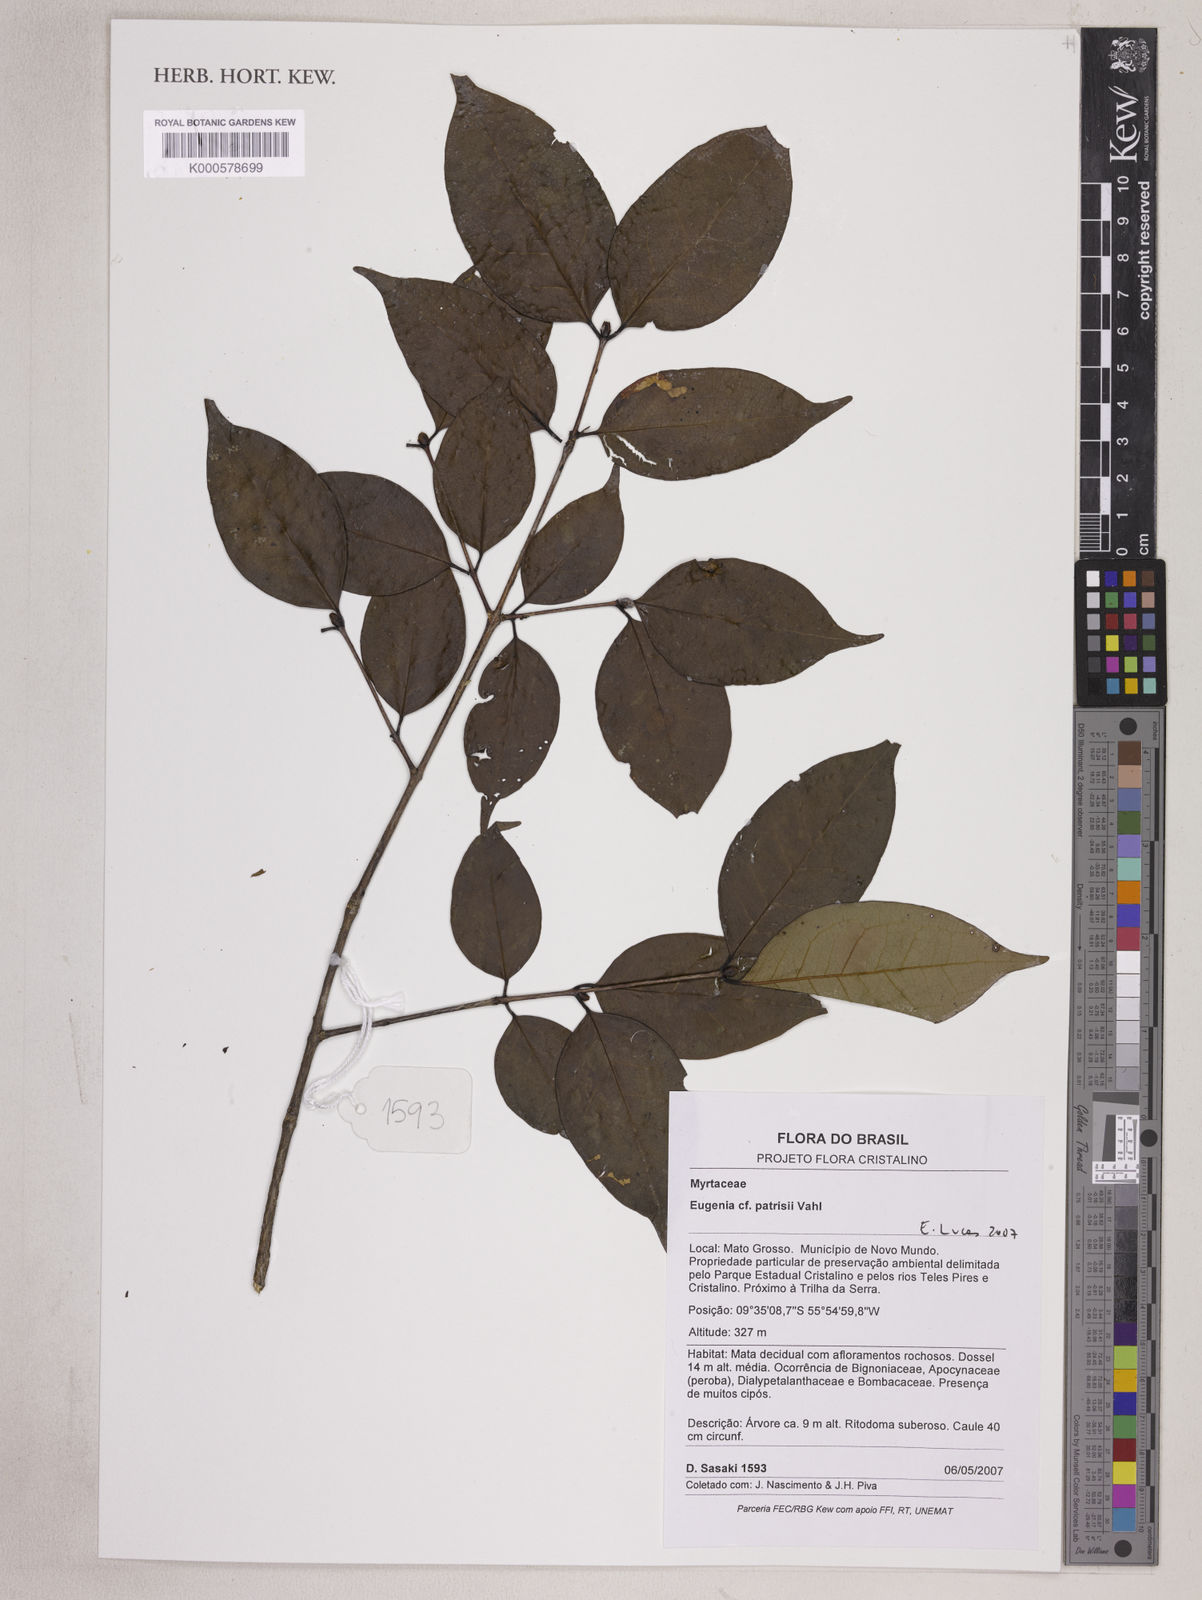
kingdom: Plantae
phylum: Tracheophyta
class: Magnoliopsida
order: Myrtales
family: Myrtaceae
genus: Eugenia
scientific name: Eugenia
